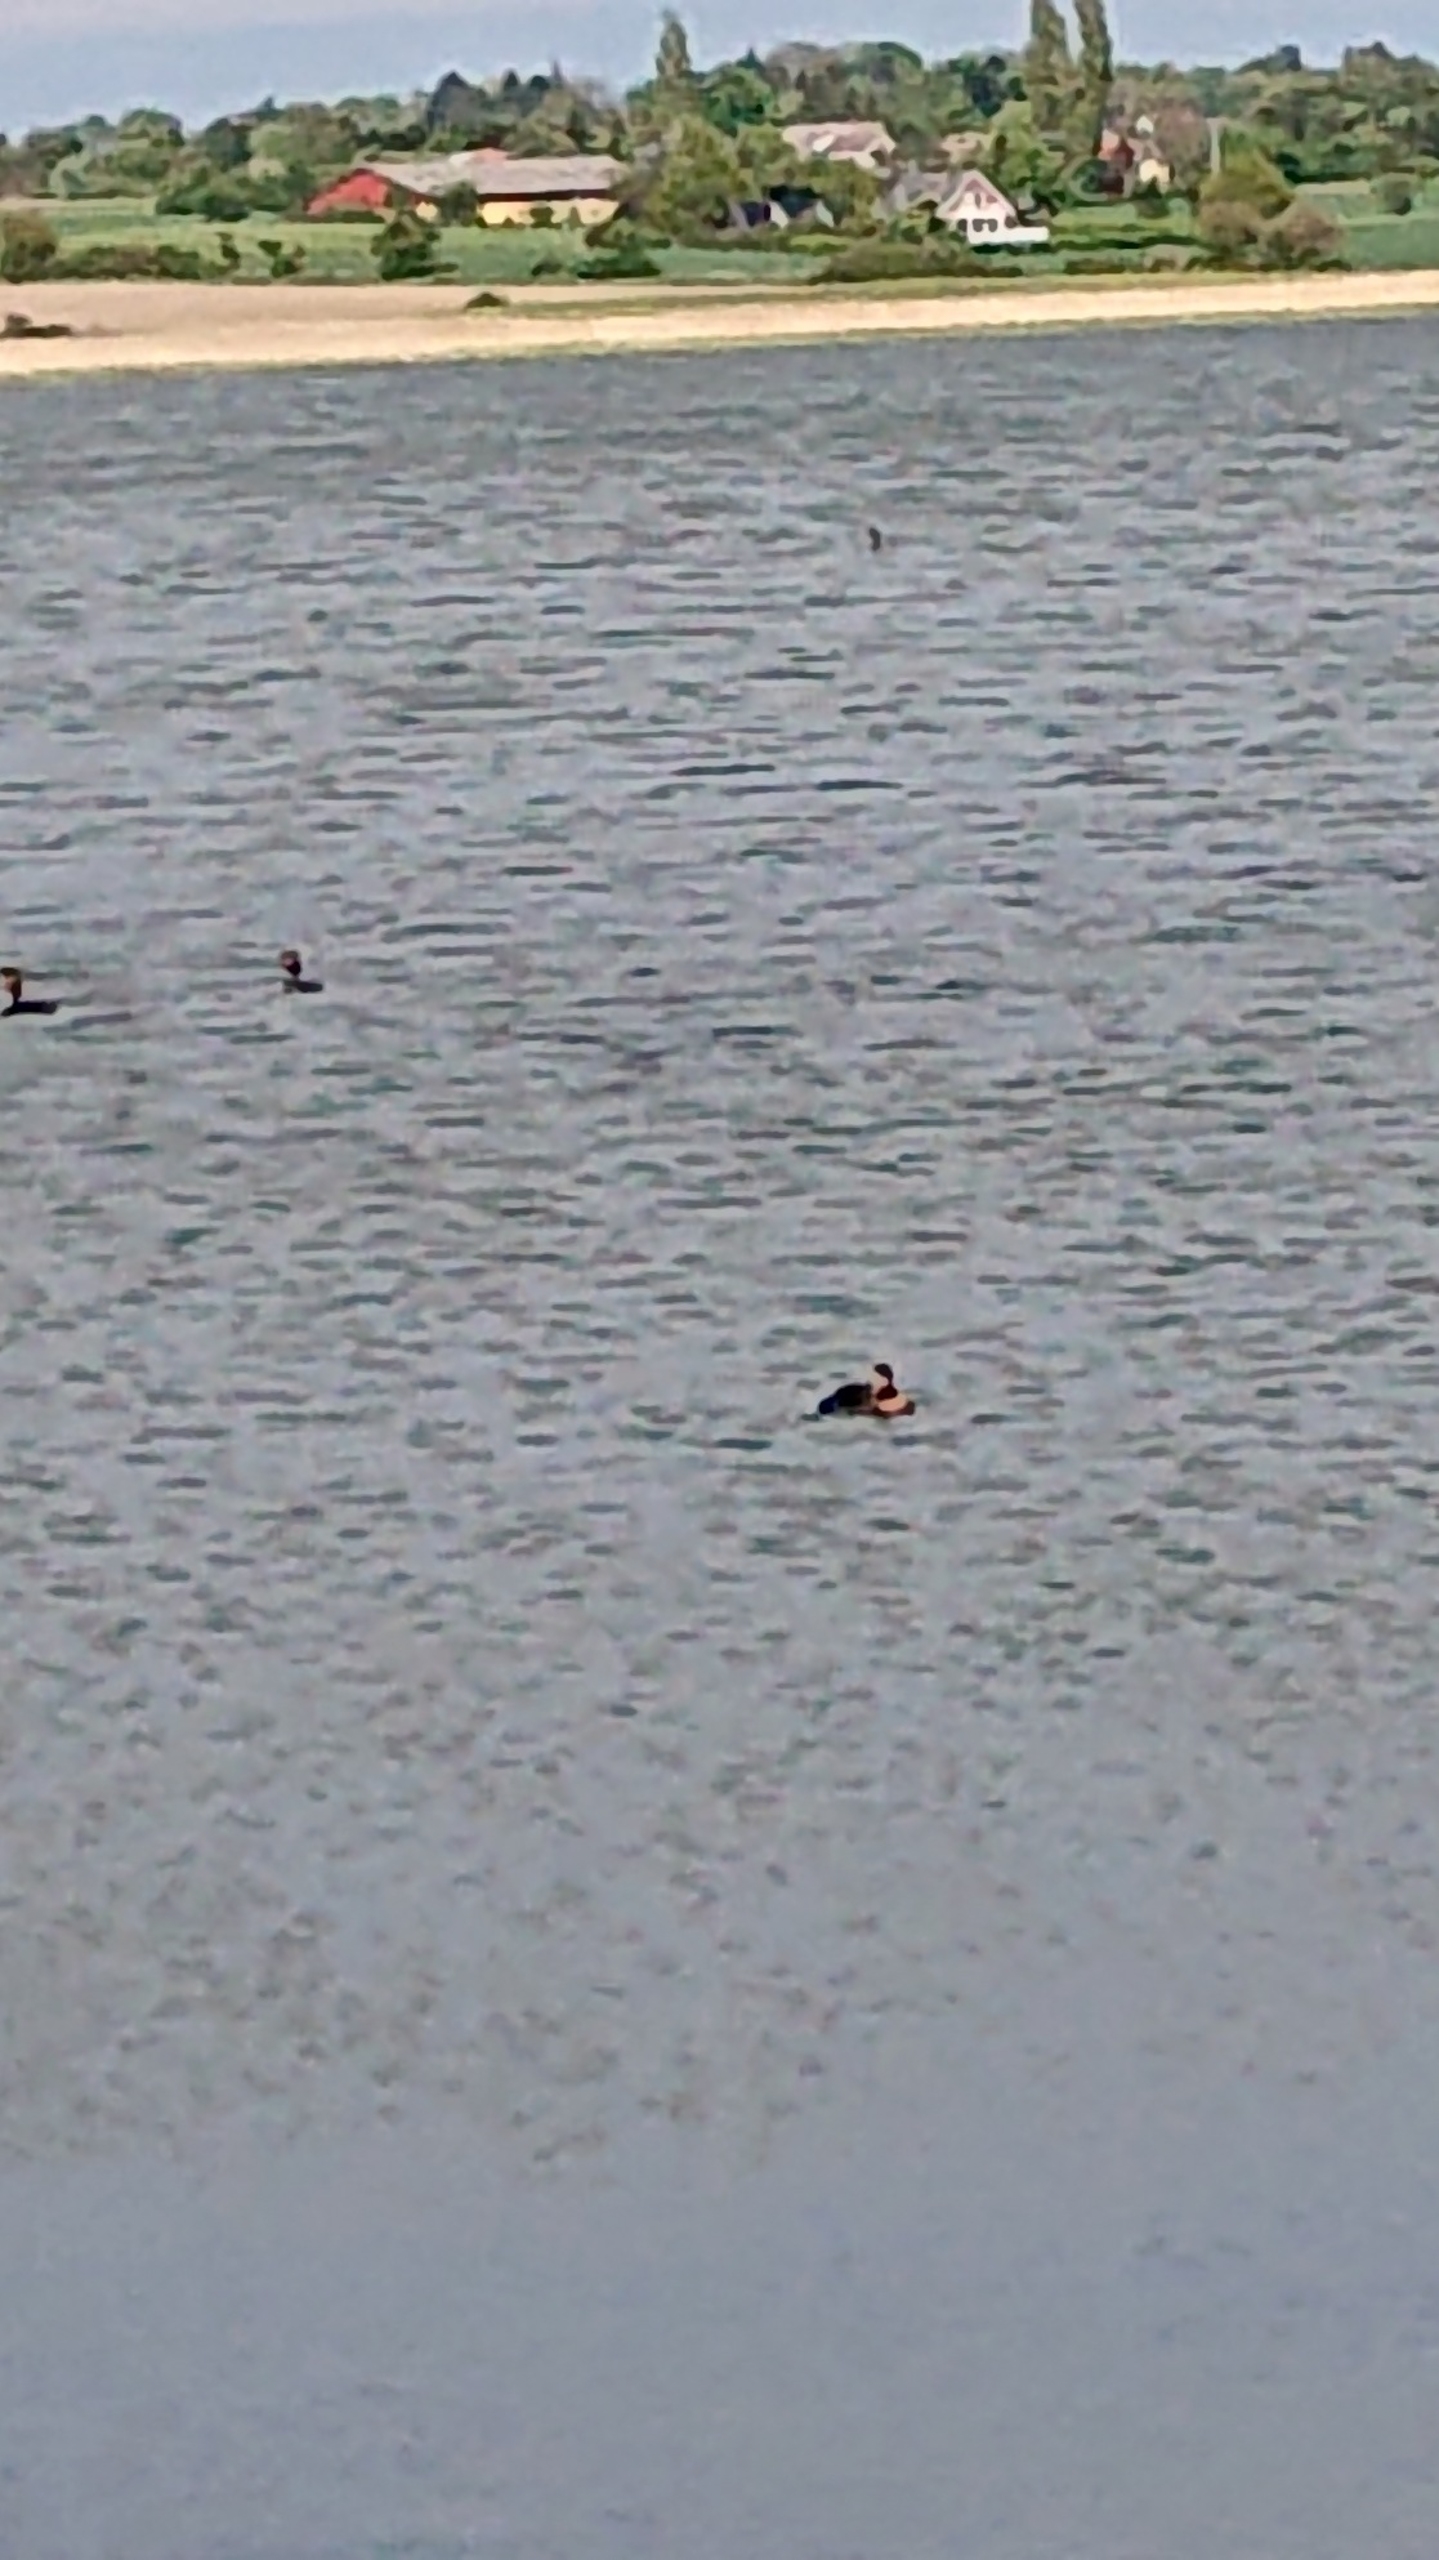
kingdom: Animalia
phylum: Chordata
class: Aves
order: Podicipediformes
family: Podicipedidae
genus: Podiceps
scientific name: Podiceps grisegena
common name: Gråstrubet lappedykker
